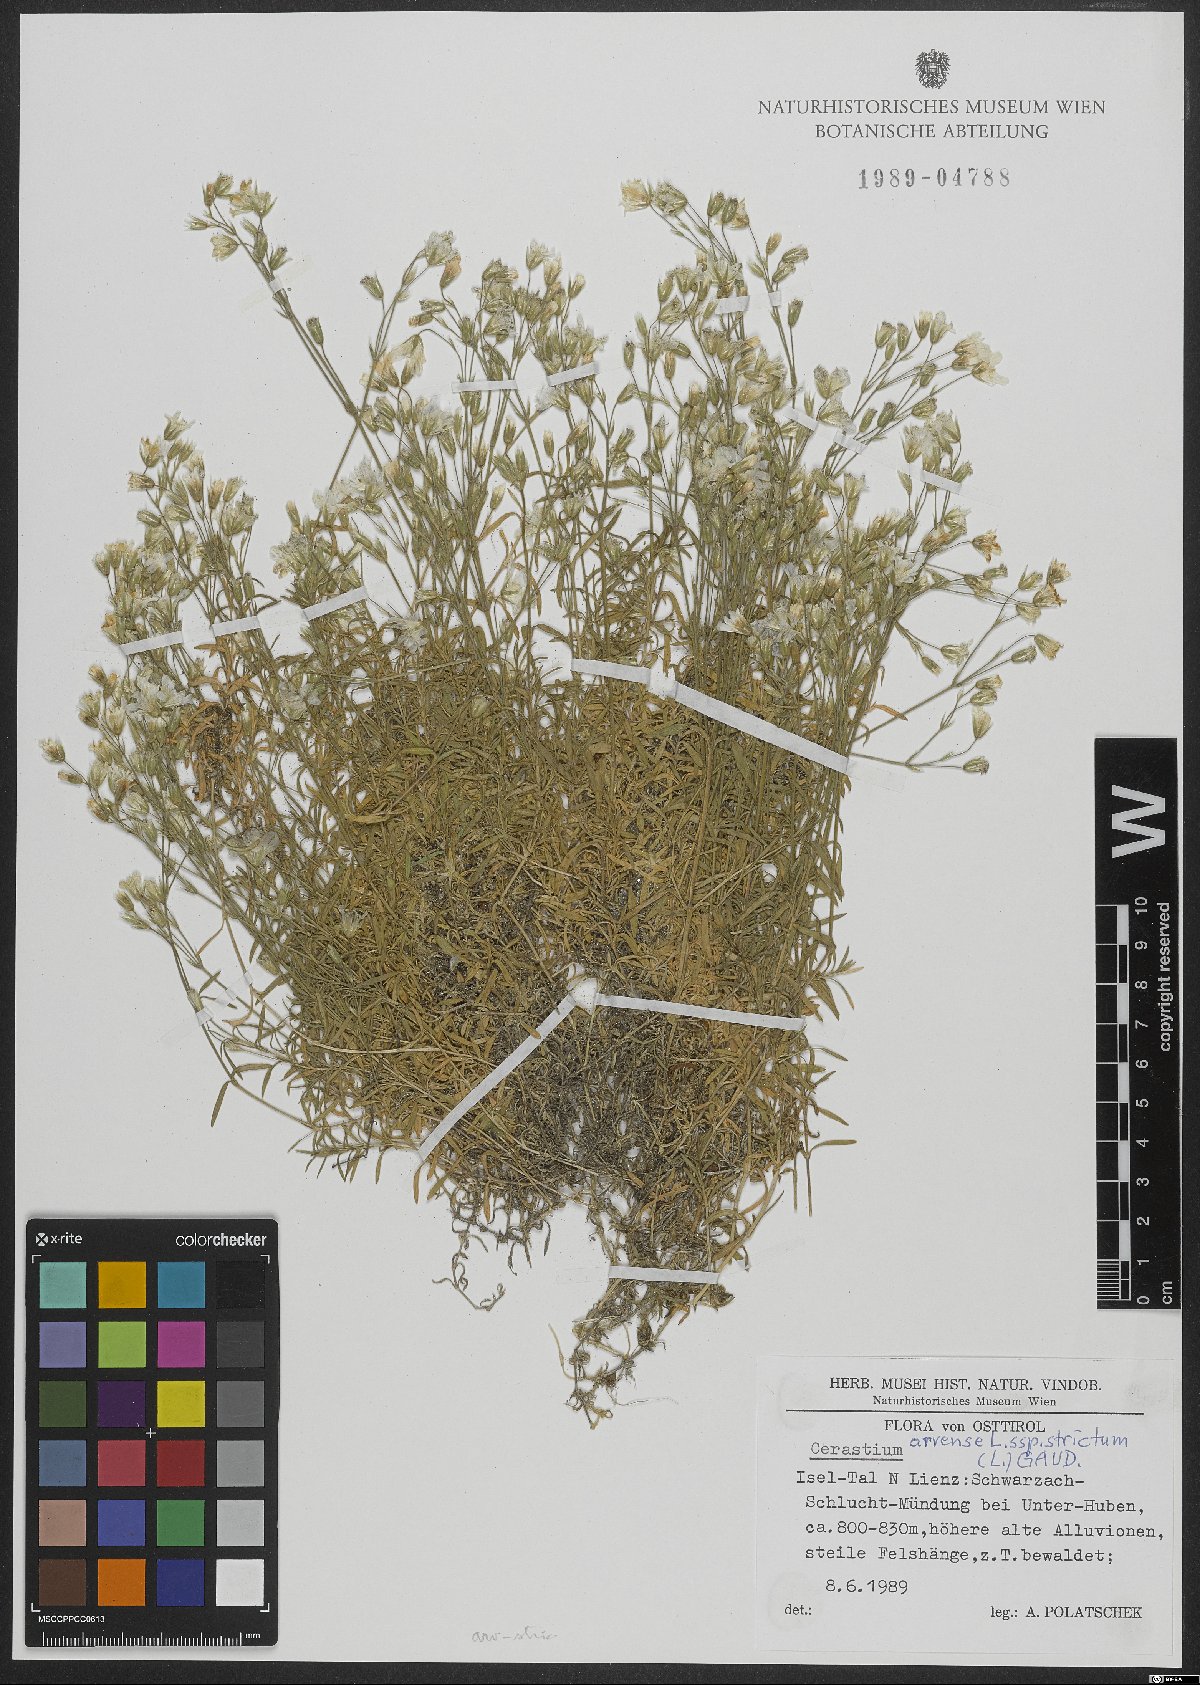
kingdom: Plantae
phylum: Tracheophyta
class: Magnoliopsida
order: Caryophyllales
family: Caryophyllaceae
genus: Cerastium
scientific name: Cerastium elongatum
